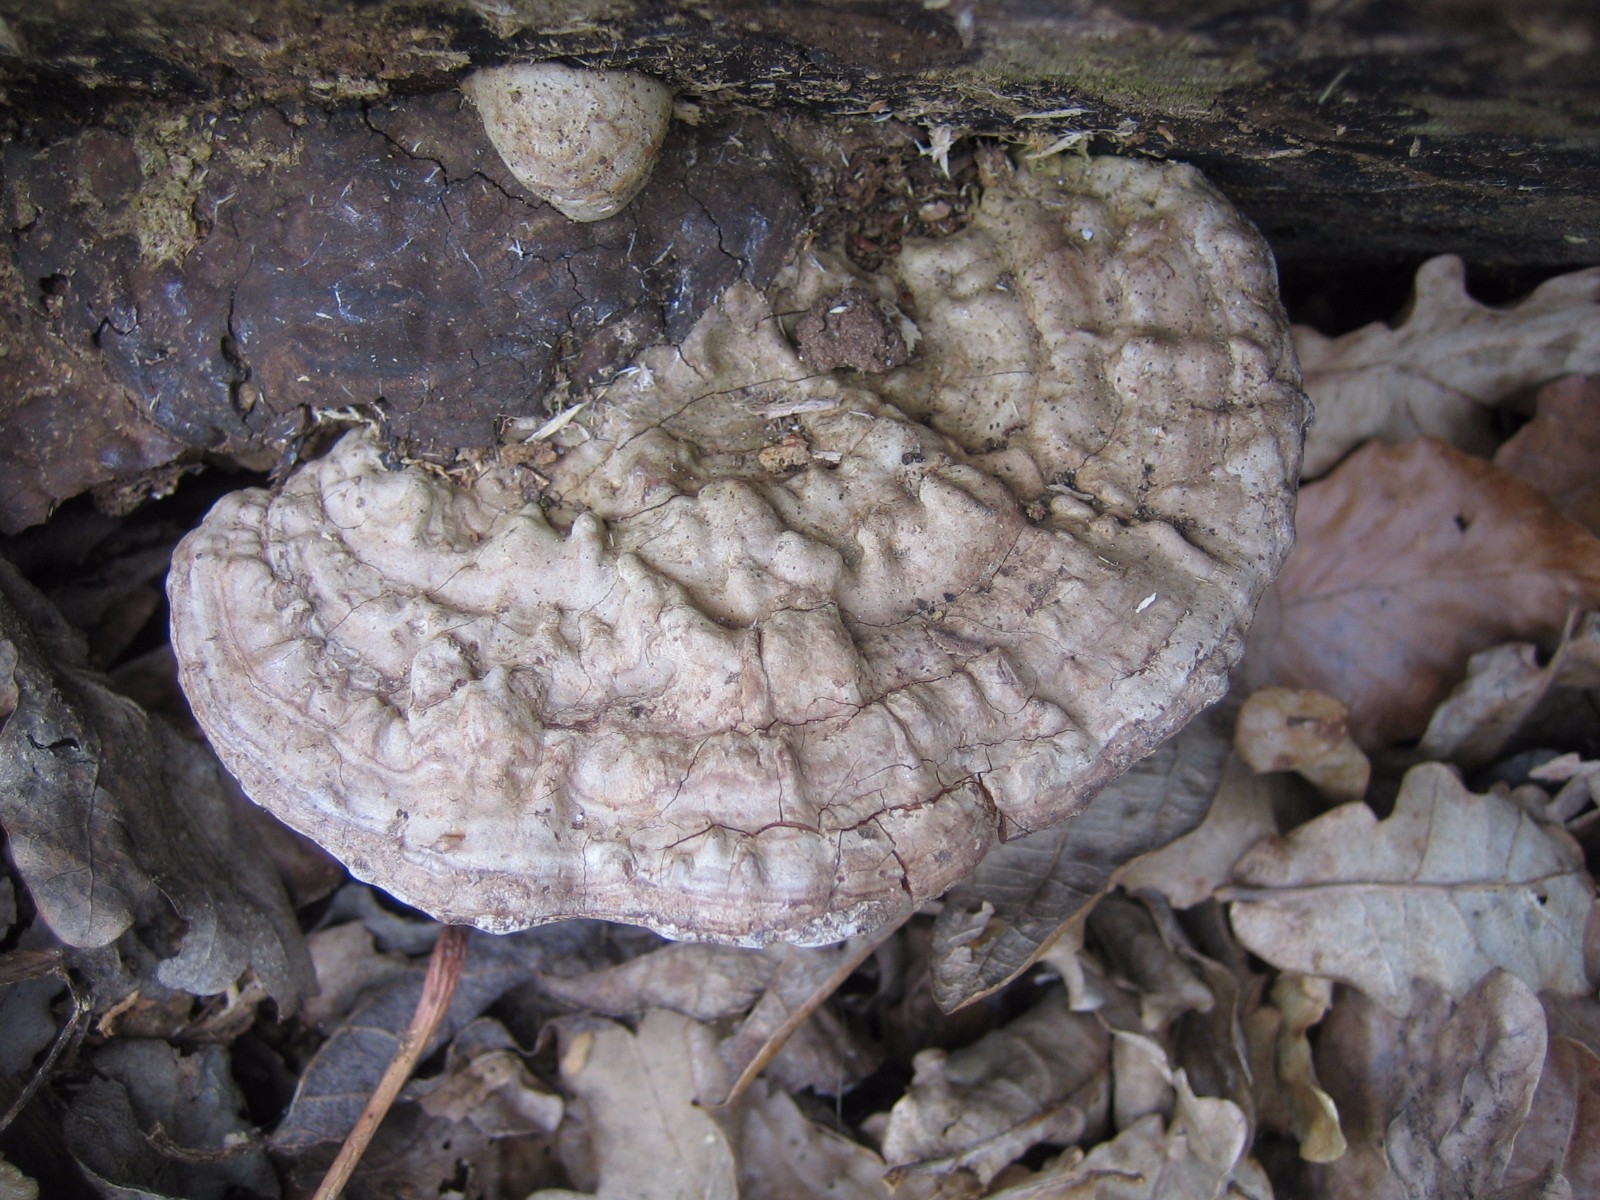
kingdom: Fungi
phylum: Basidiomycota
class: Agaricomycetes
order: Polyporales
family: Polyporaceae
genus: Ganoderma
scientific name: Ganoderma applanatum
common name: flad lakporesvamp
